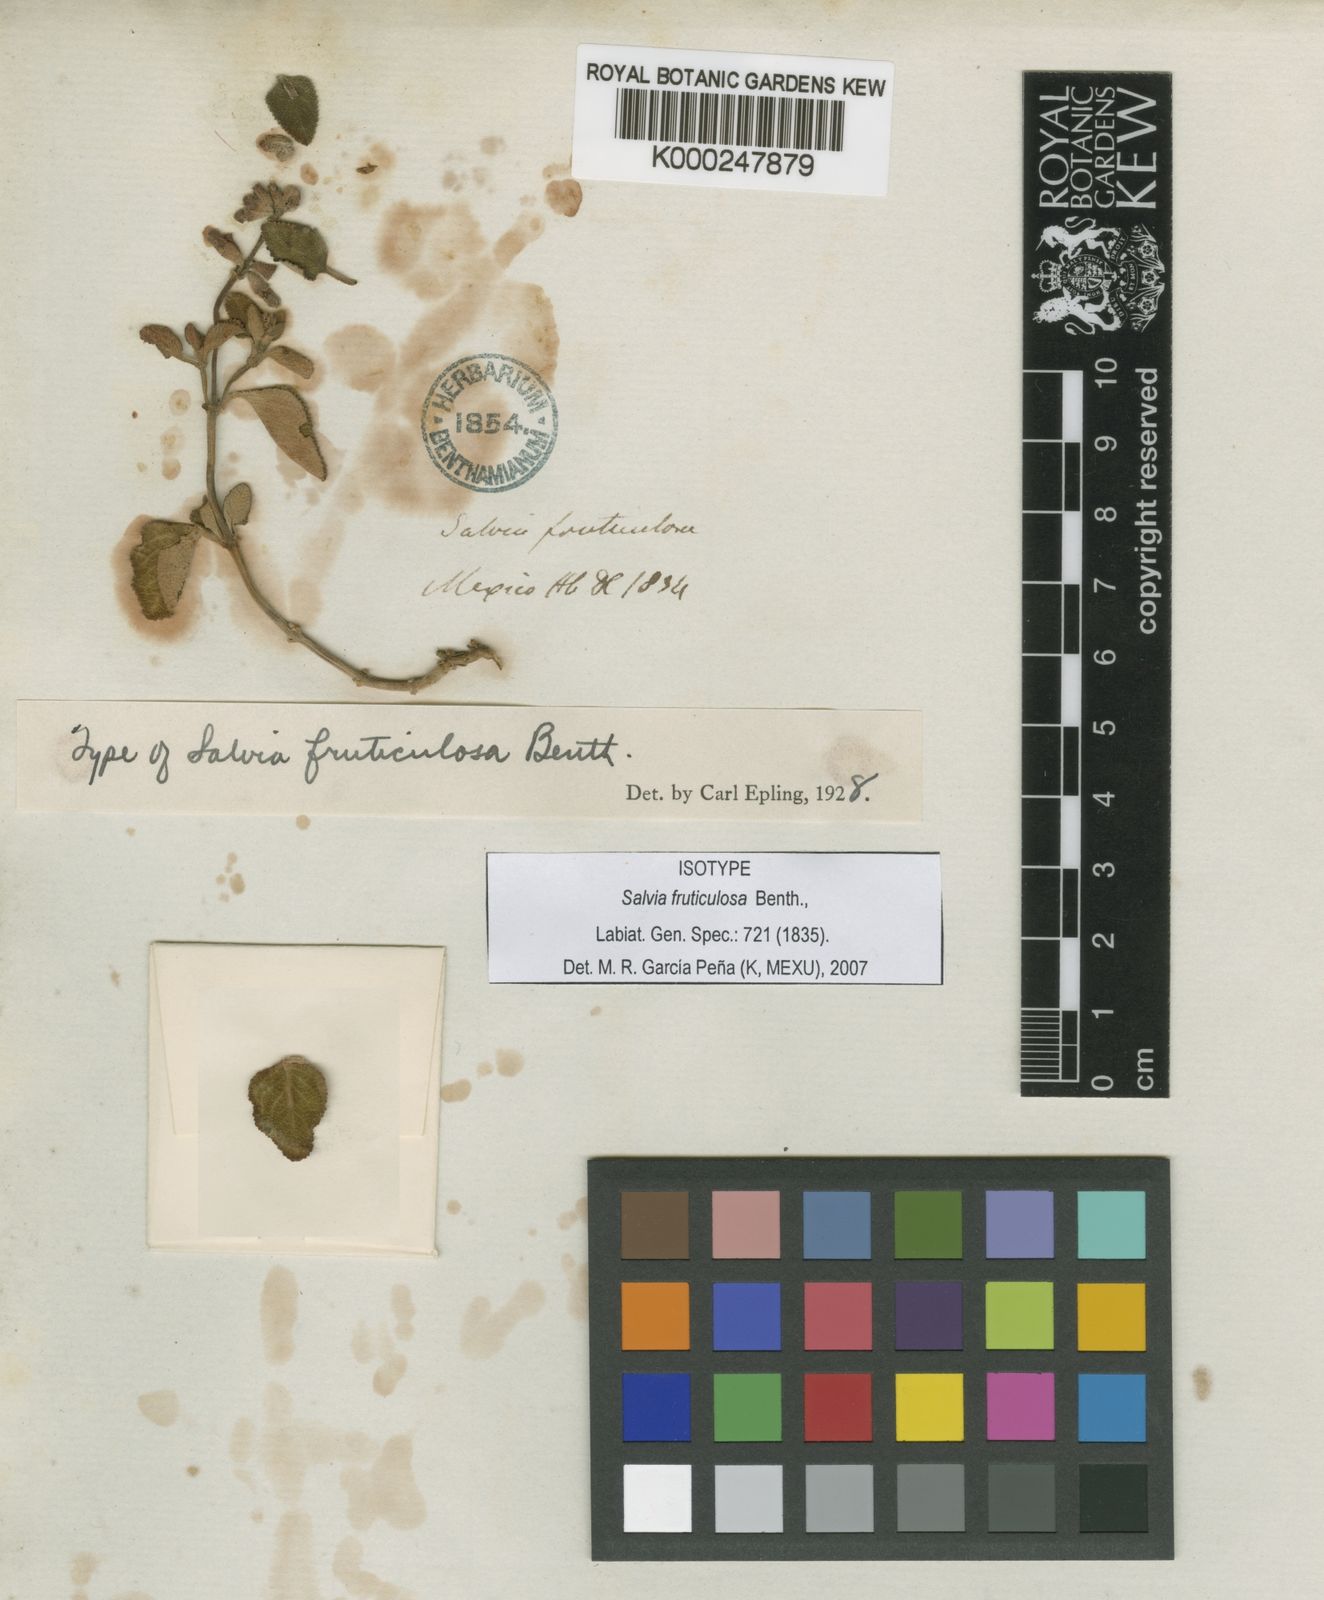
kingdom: Plantae
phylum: Tracheophyta
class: Magnoliopsida
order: Lamiales
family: Lamiaceae
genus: Salvia
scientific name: Salvia fruticulosa
